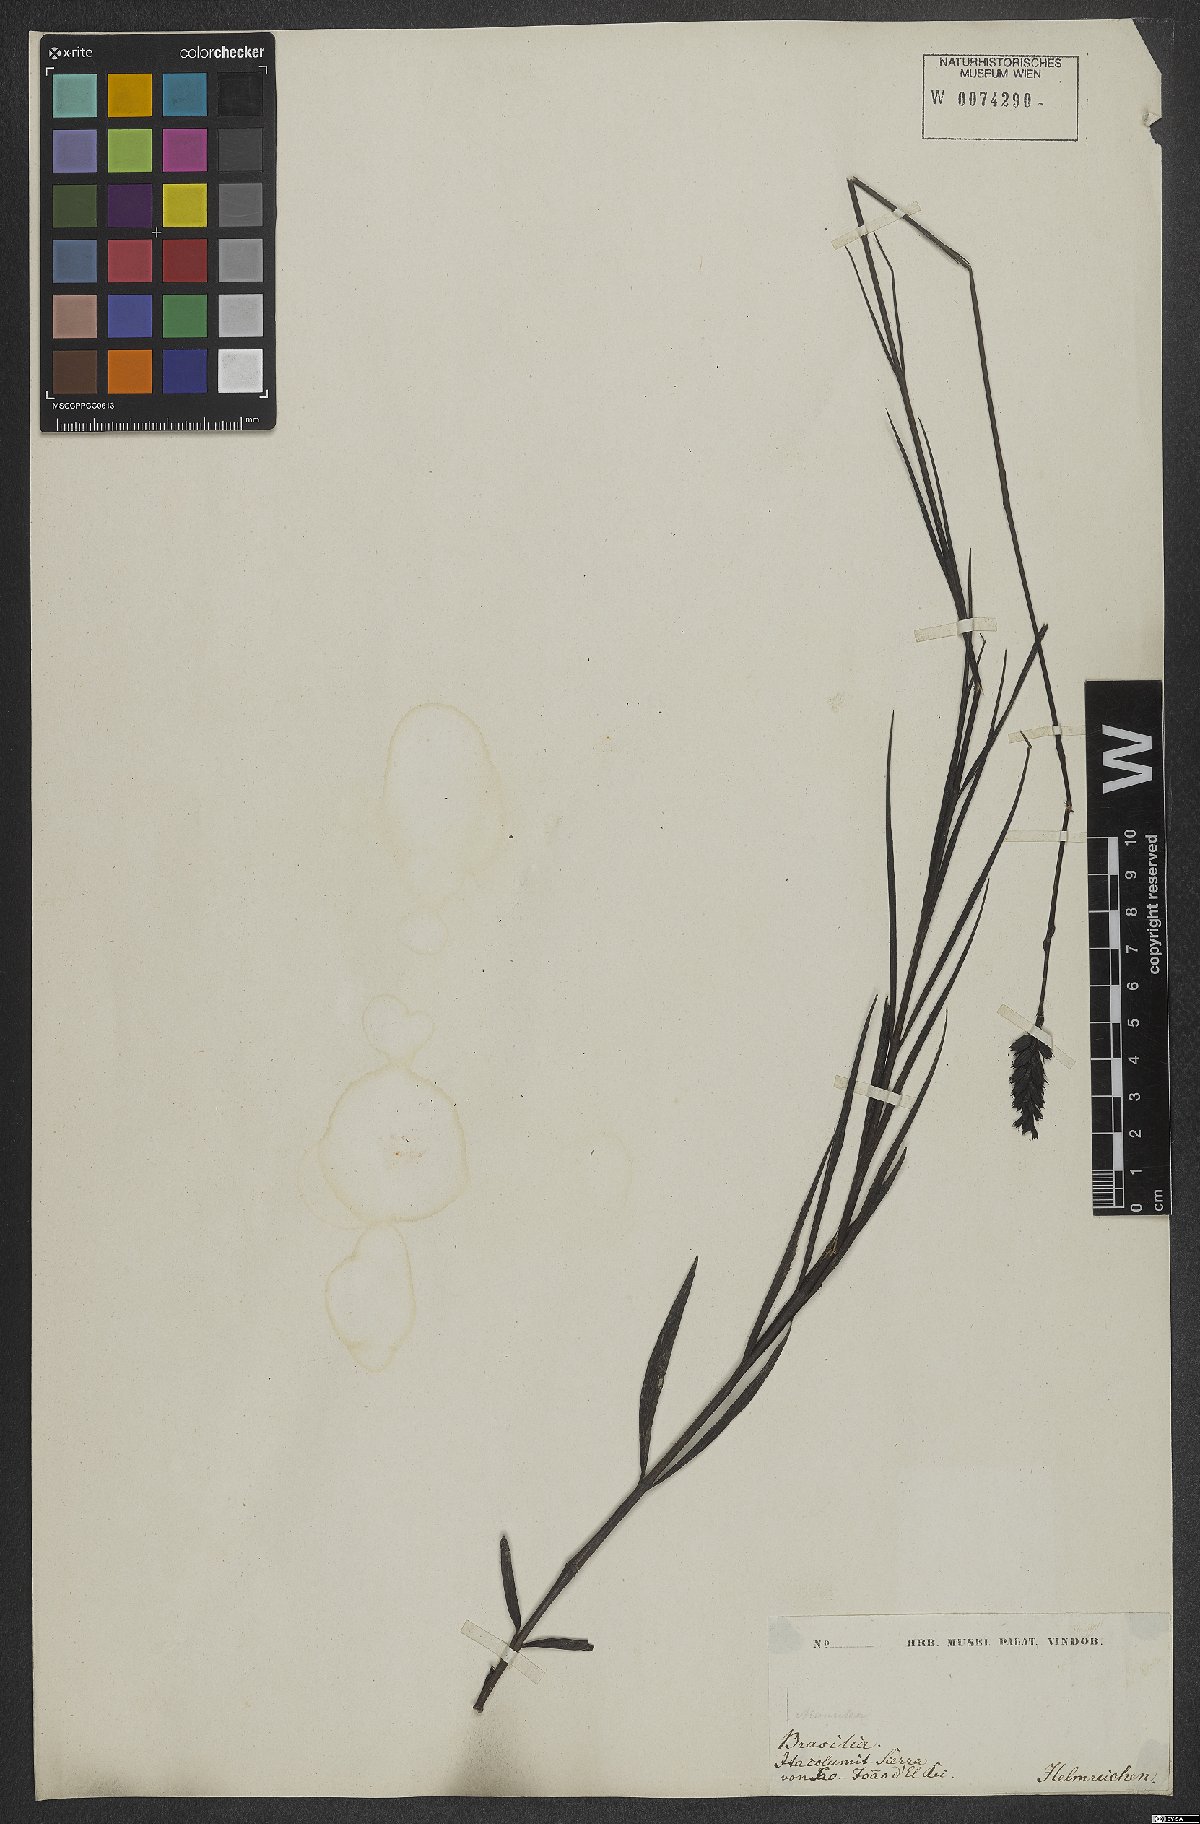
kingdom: Plantae
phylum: Tracheophyta
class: Magnoliopsida
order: Lamiales
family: Orobanchaceae
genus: Buchnera
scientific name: Buchnera disticha
